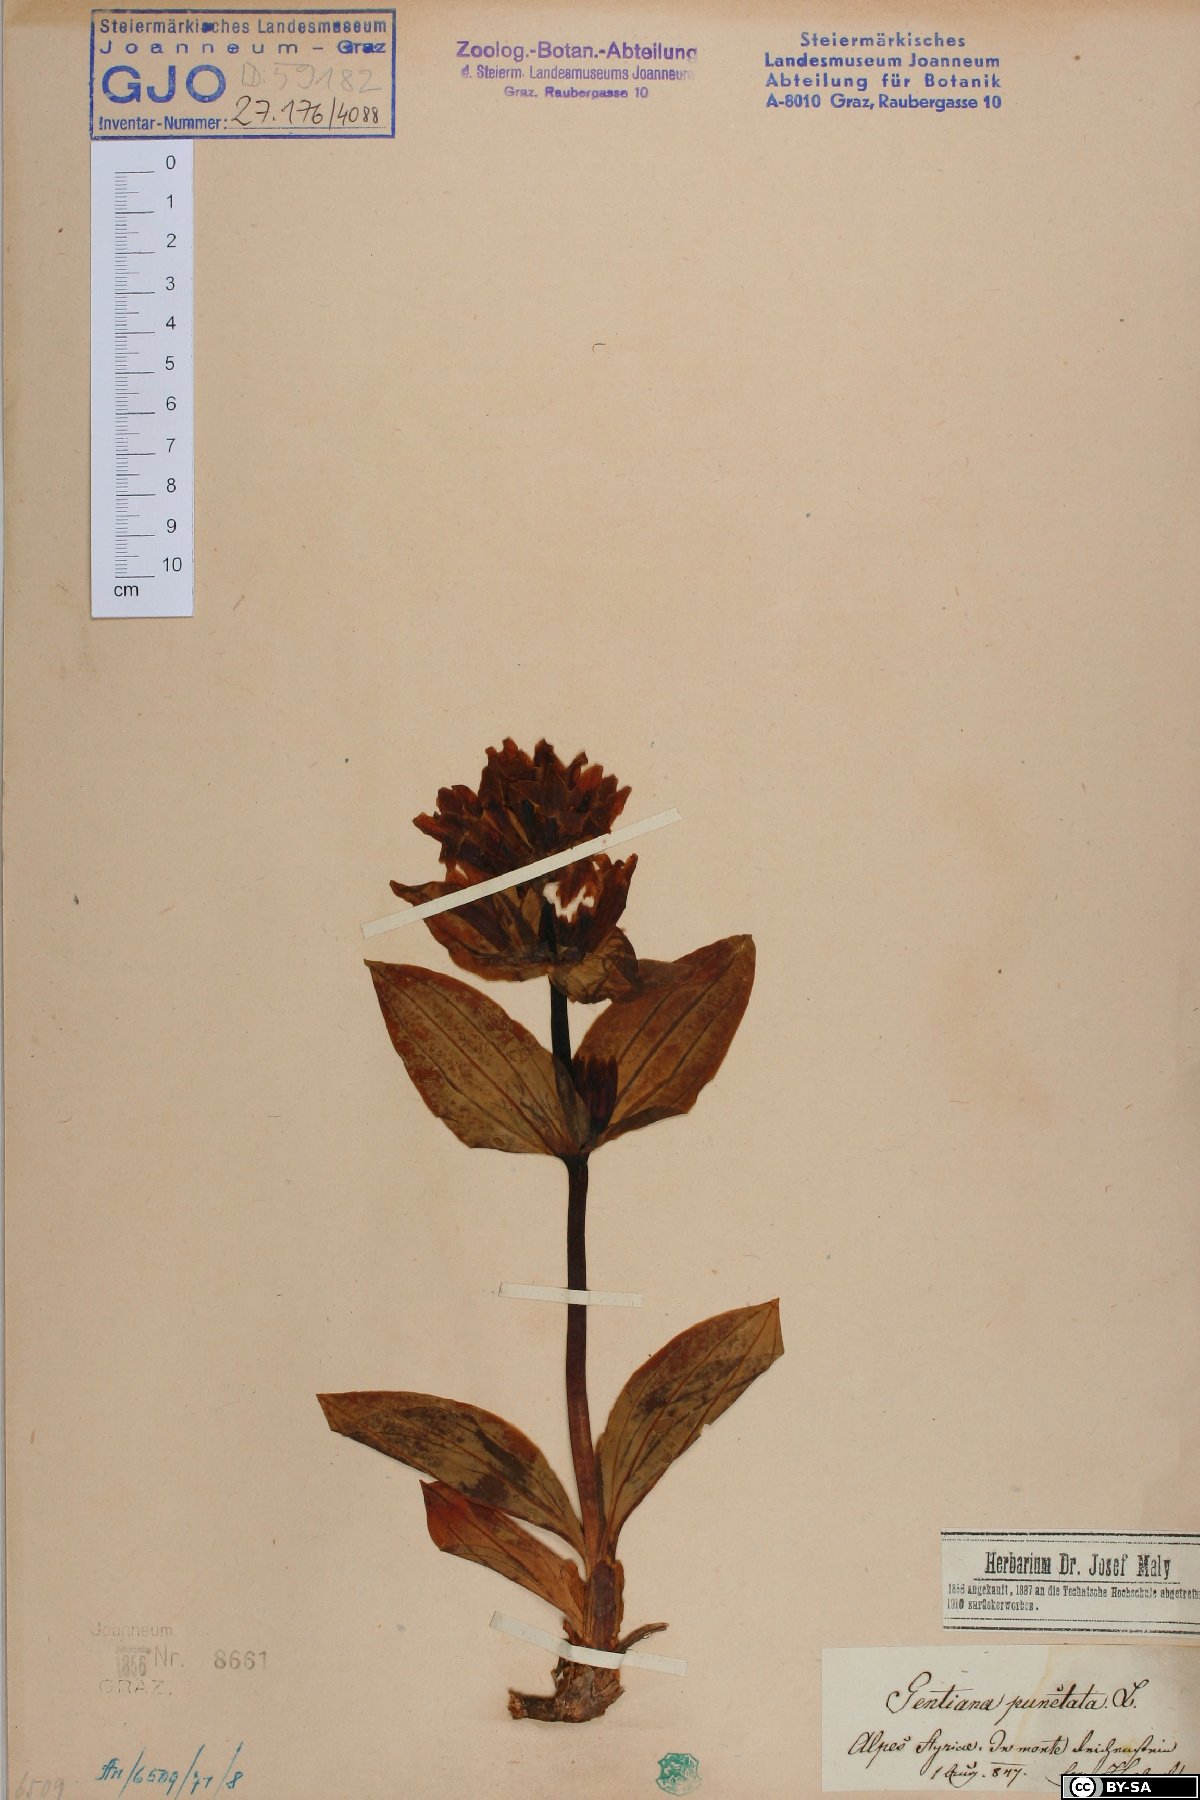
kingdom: Plantae
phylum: Tracheophyta
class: Magnoliopsida
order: Gentianales
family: Gentianaceae
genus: Gentiana
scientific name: Gentiana punctata
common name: Spotted gentian
